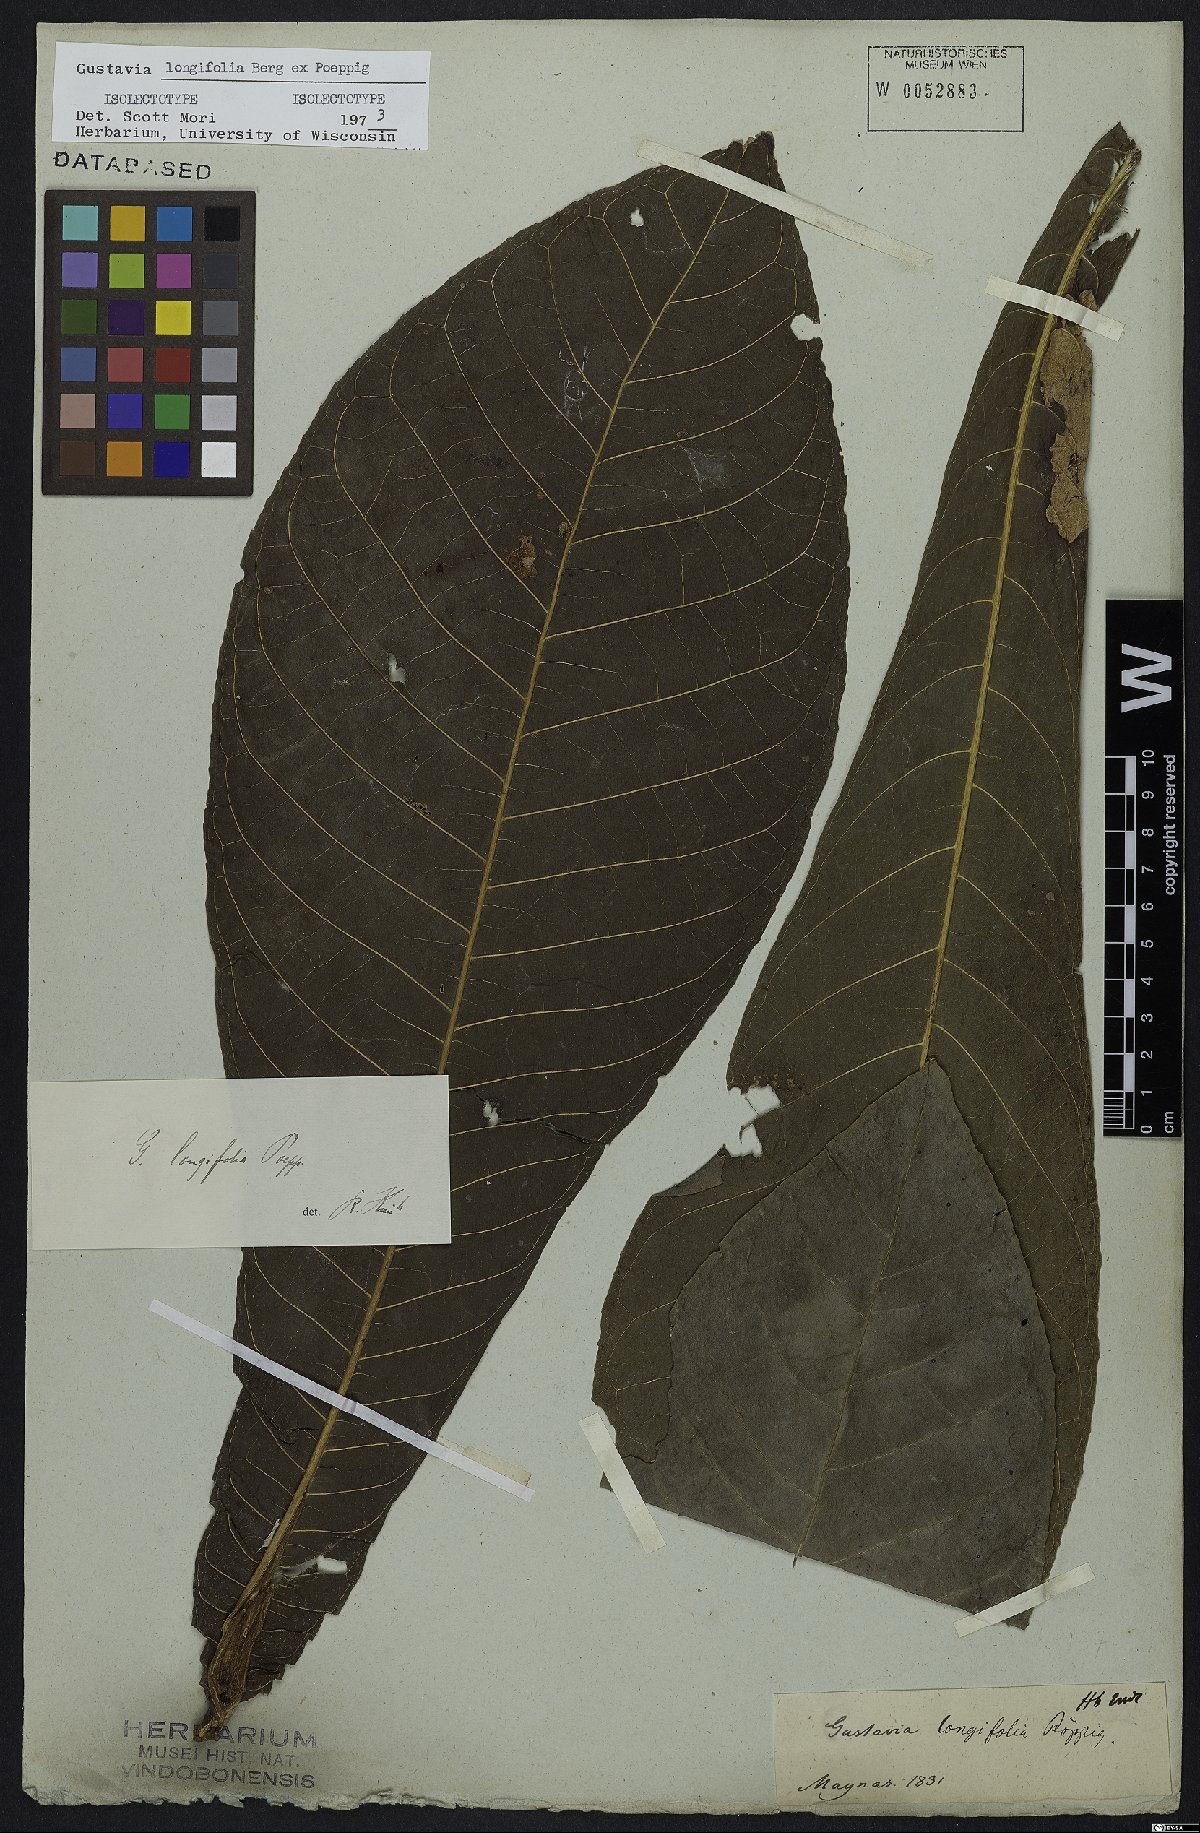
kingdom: Plantae
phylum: Tracheophyta
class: Magnoliopsida
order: Ericales
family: Lecythidaceae
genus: Gustavia
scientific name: Gustavia longifolia
